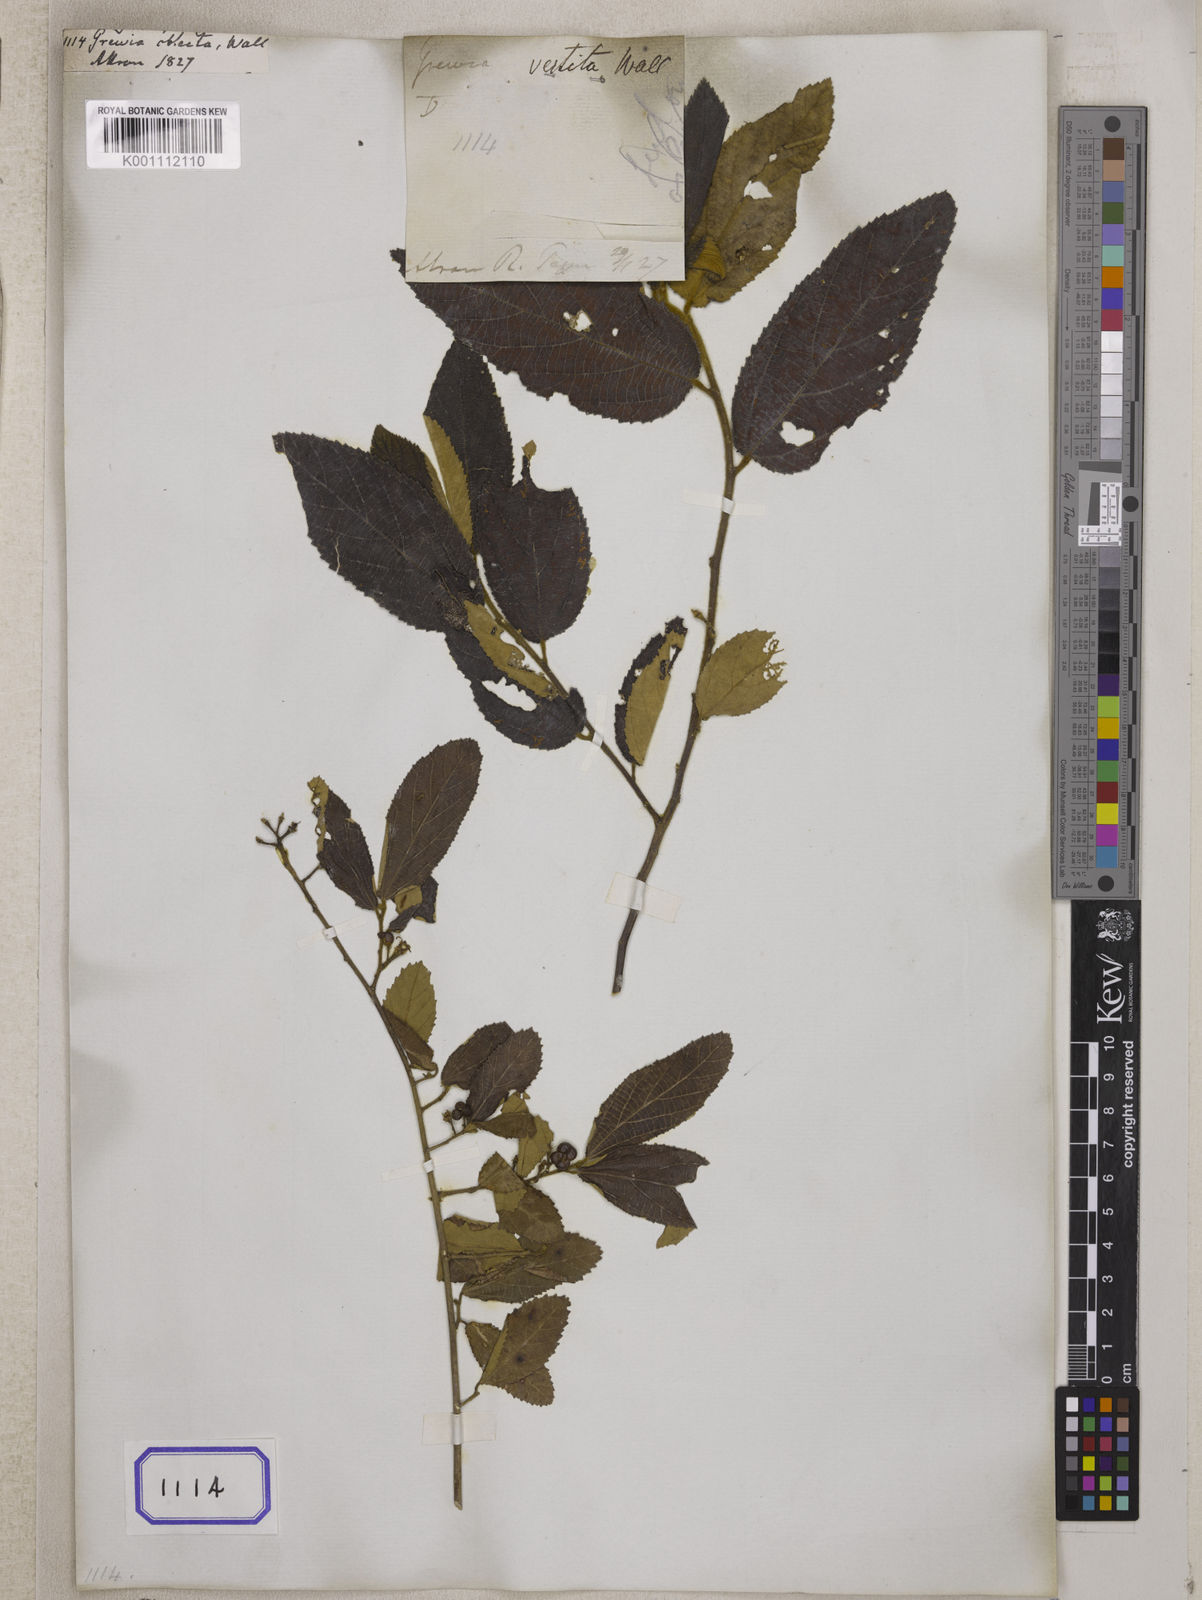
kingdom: Plantae
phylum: Tracheophyta
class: Magnoliopsida
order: Malvales
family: Malvaceae
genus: Grewia
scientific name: Grewia asiatica
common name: Phalsa
